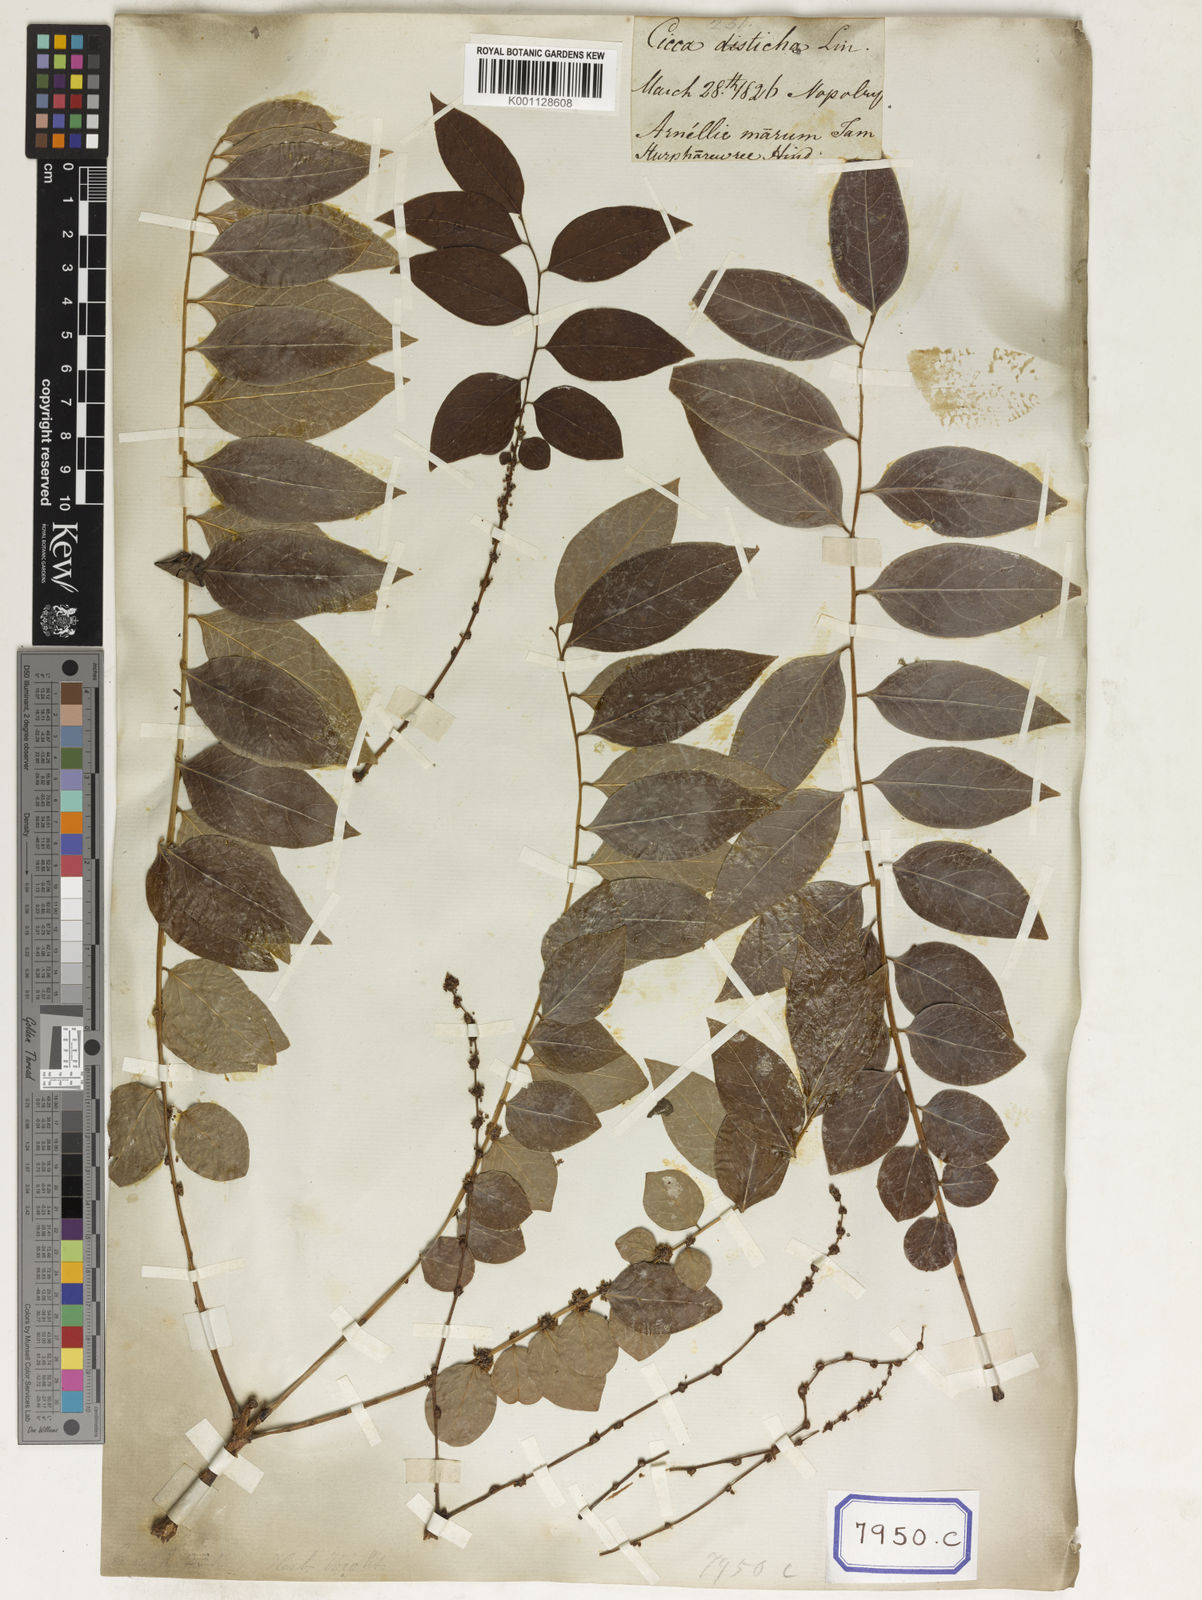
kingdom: Plantae
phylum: Tracheophyta
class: Magnoliopsida
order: Malpighiales
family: Euphorbiaceae
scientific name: Euphorbiaceae
